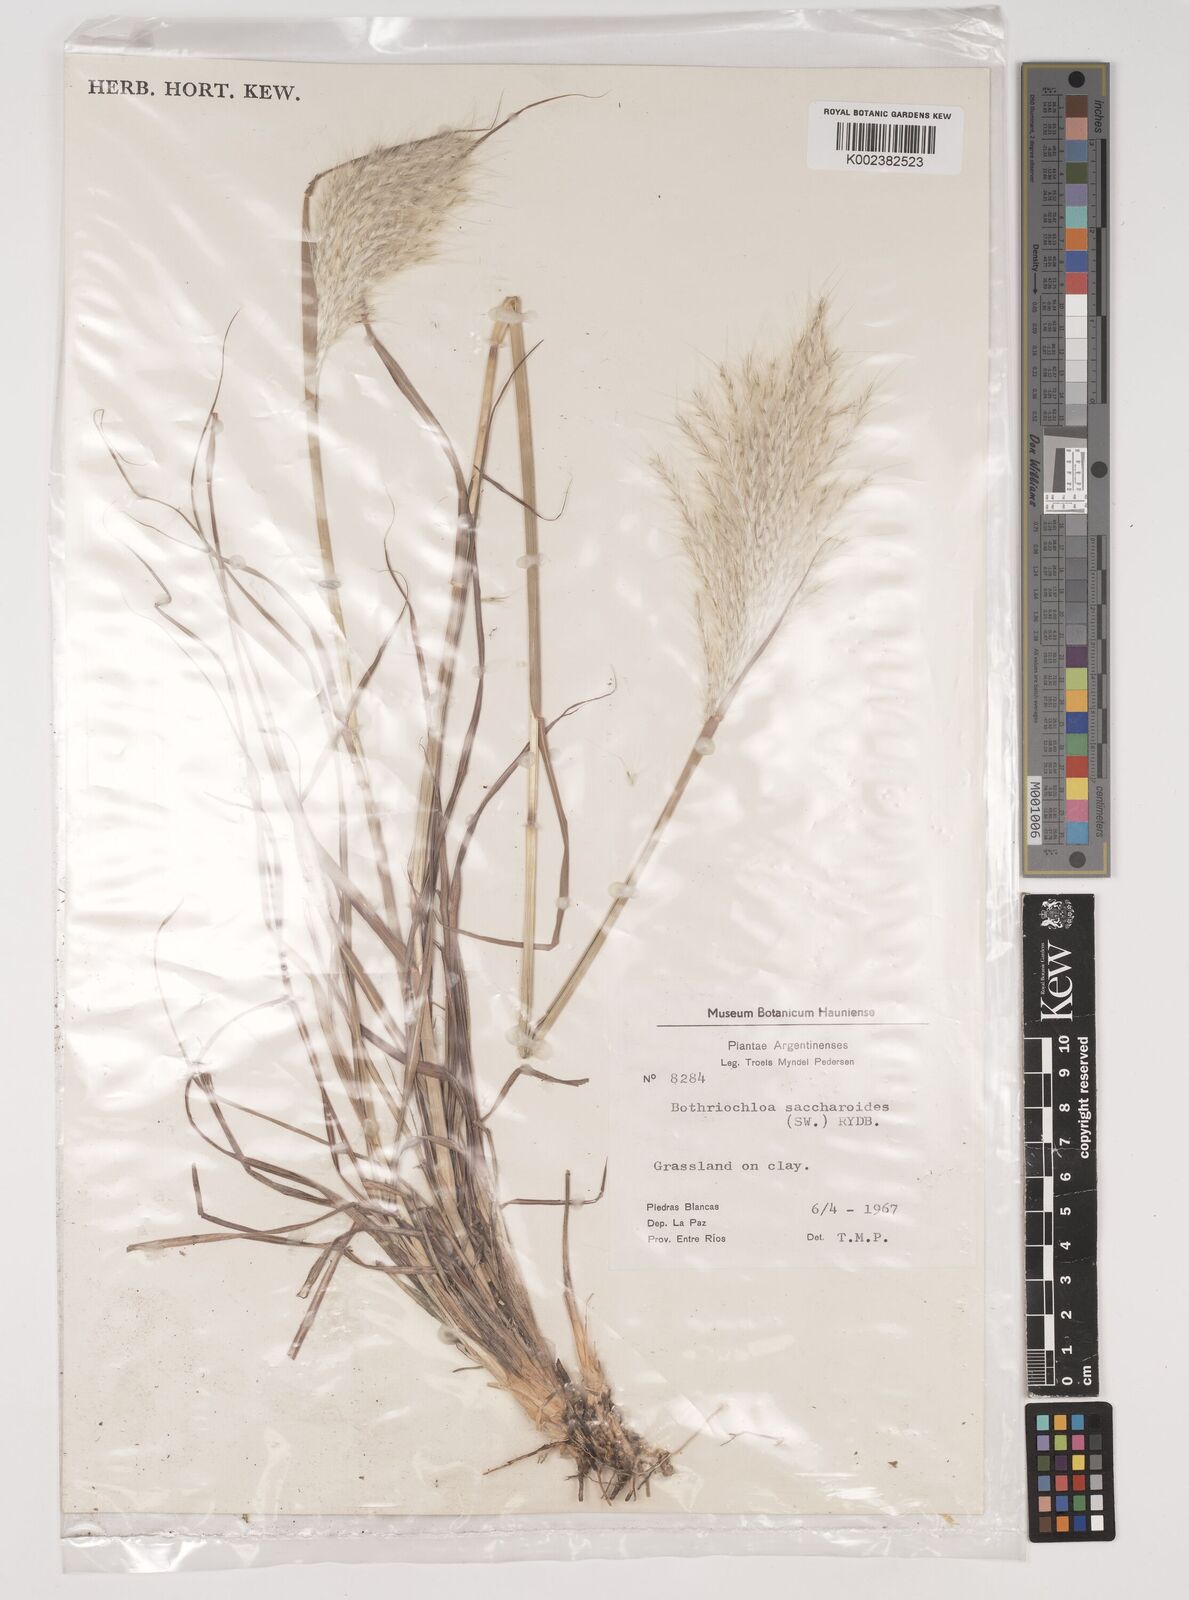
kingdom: Plantae
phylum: Tracheophyta
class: Liliopsida
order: Poales
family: Poaceae
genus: Bothriochloa
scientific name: Bothriochloa saccharoides
